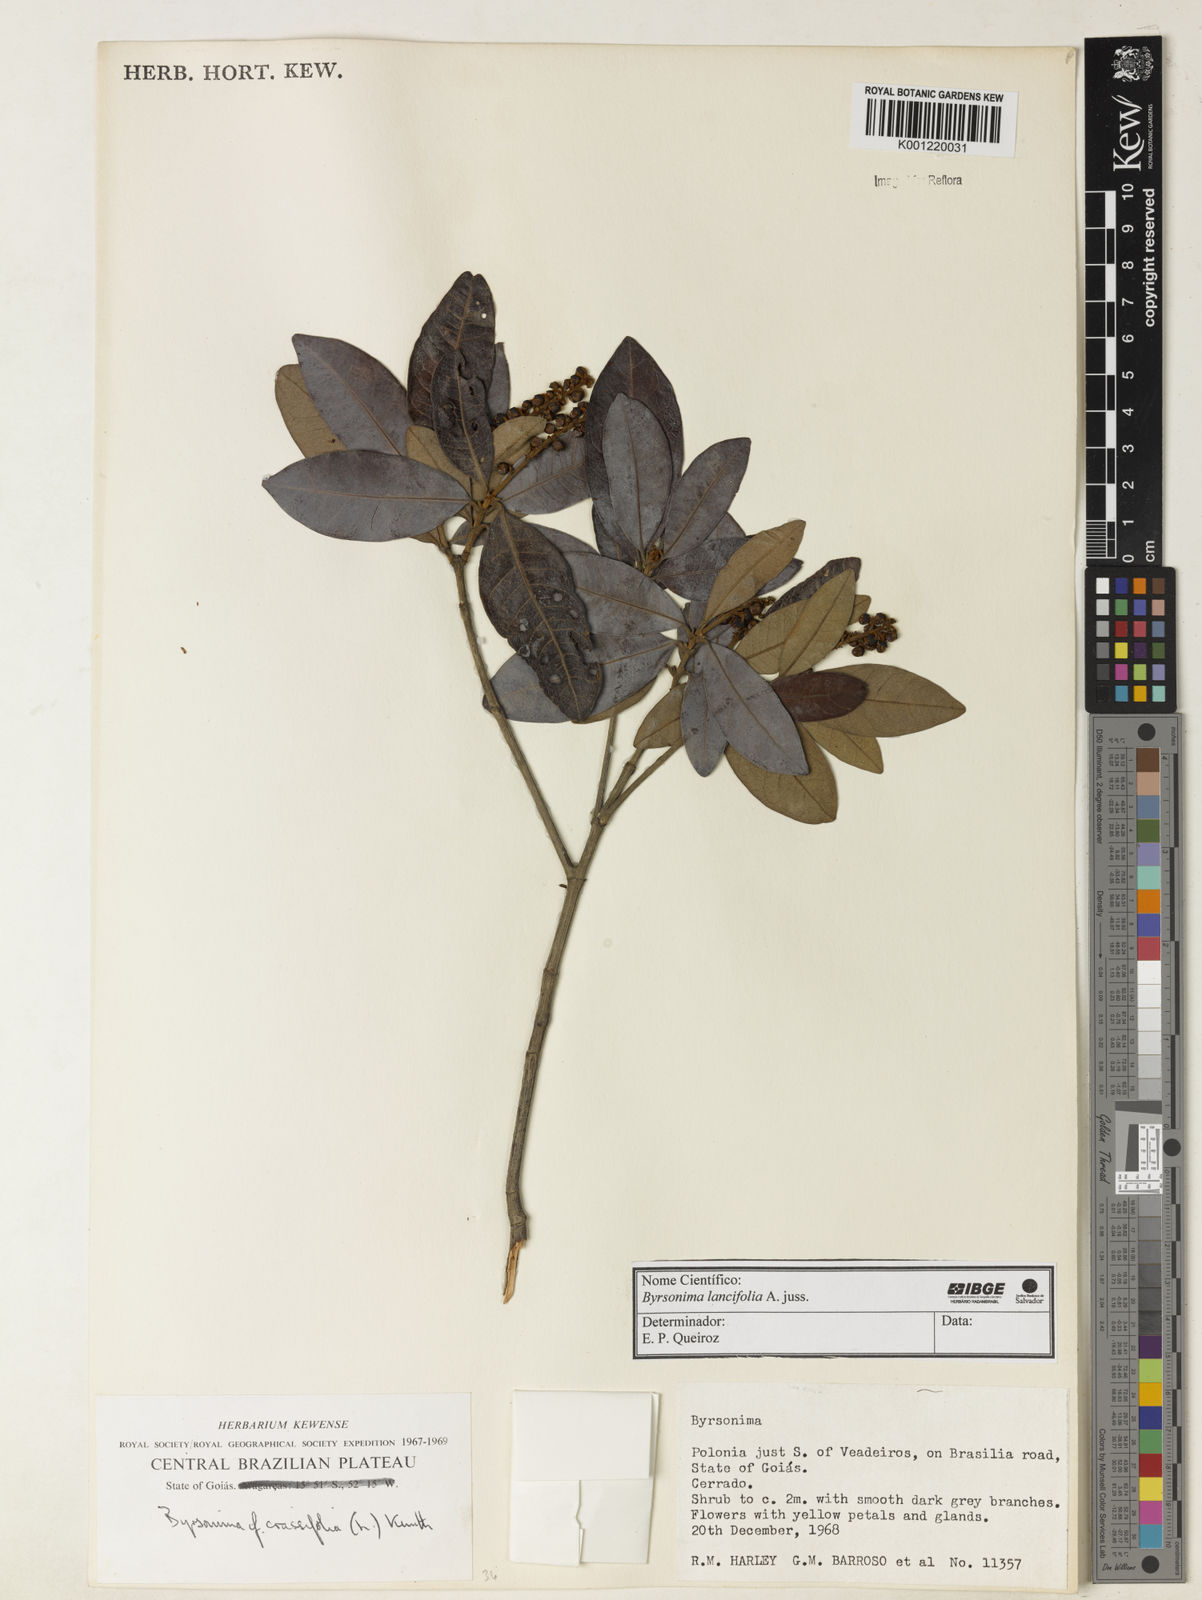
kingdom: Plantae
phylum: Tracheophyta
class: Magnoliopsida
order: Malpighiales
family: Malpighiaceae
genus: Byrsonima
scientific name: Byrsonima lancifolia
